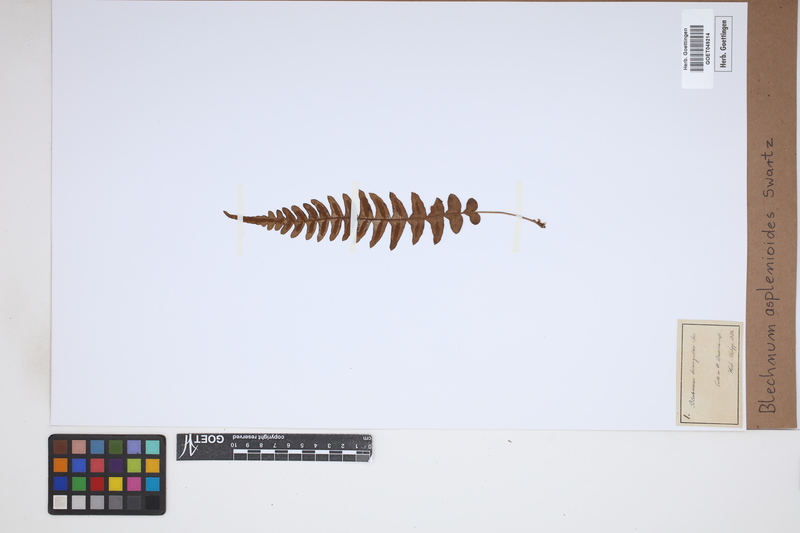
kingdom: Plantae
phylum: Tracheophyta
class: Polypodiopsida
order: Polypodiales
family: Blechnaceae
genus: Blechnum
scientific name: Blechnum asplenioides
